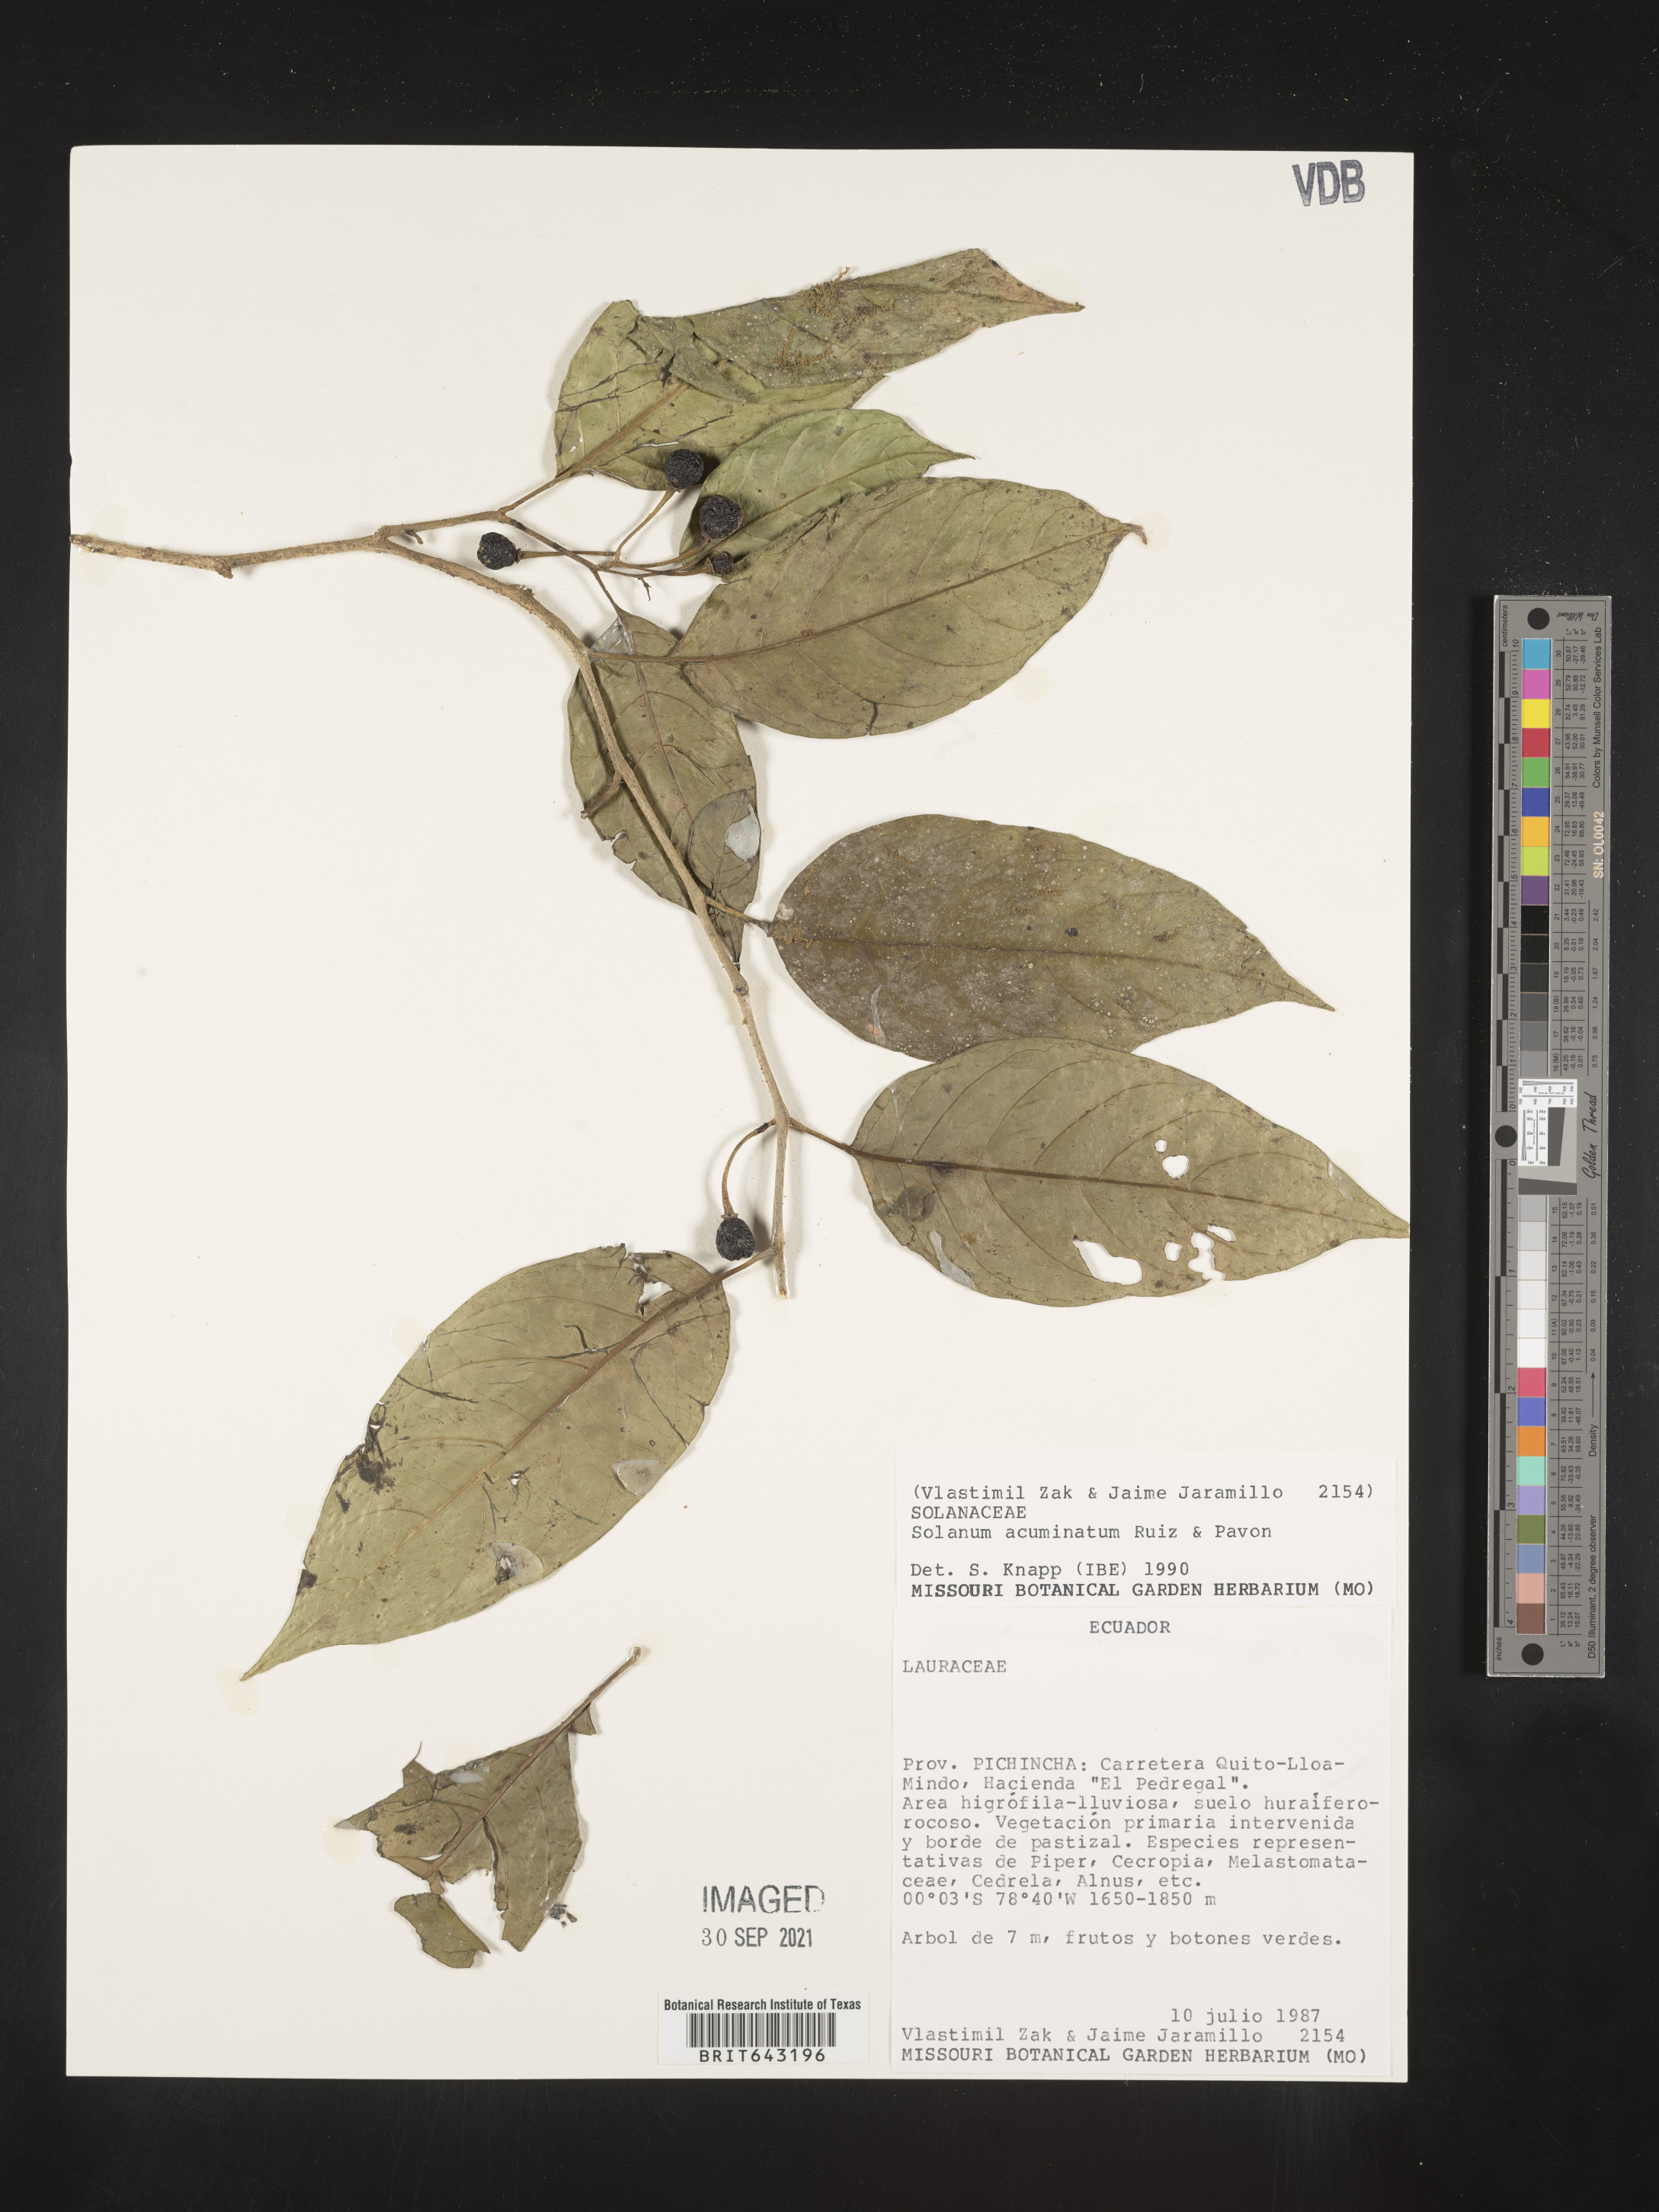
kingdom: Plantae
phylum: Tracheophyta
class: Magnoliopsida
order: Solanales
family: Solanaceae
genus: Solanum
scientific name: Solanum
